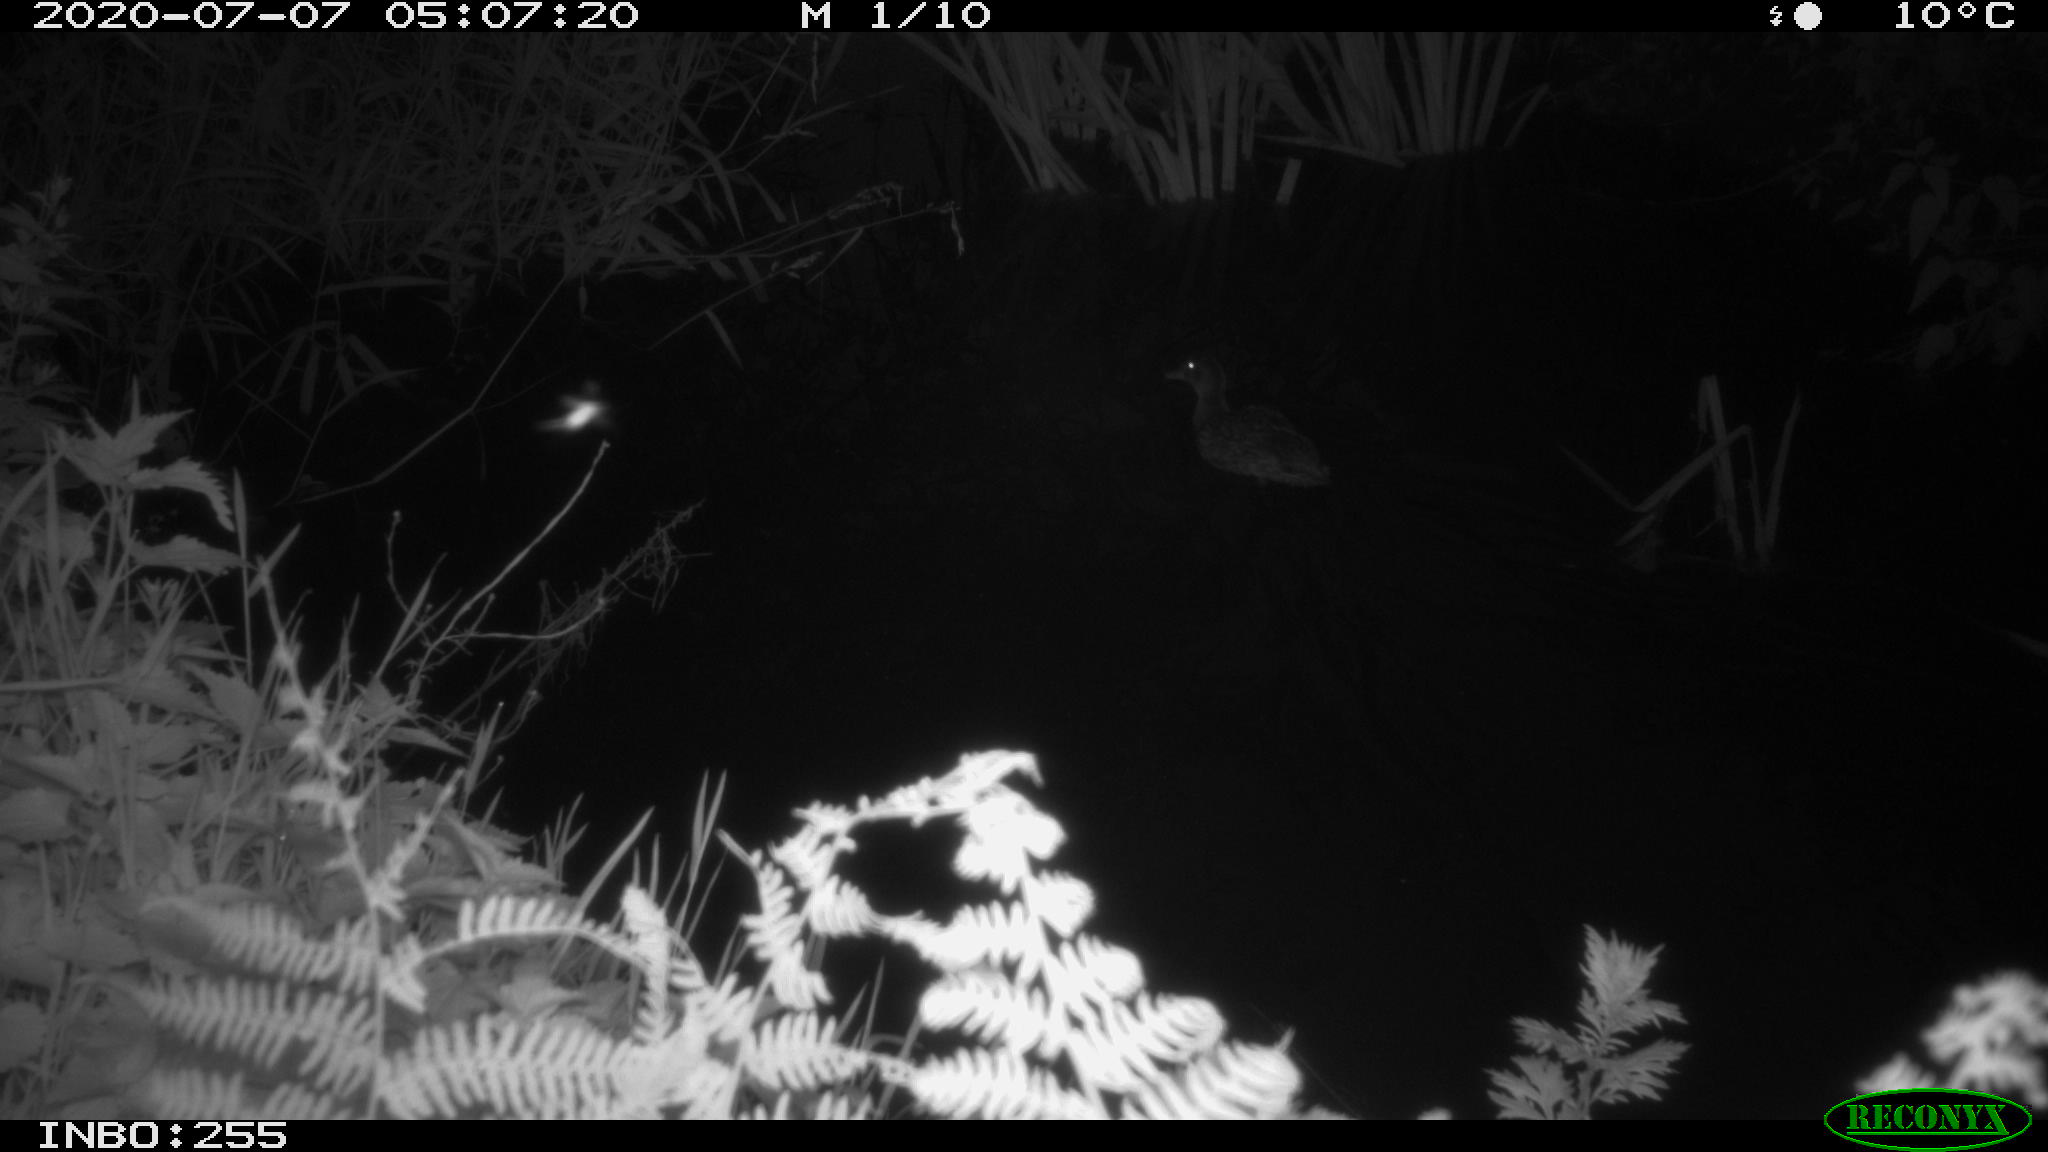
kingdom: Animalia
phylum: Chordata
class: Aves
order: Anseriformes
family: Anatidae
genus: Anas
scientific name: Anas platyrhynchos
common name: Mallard
